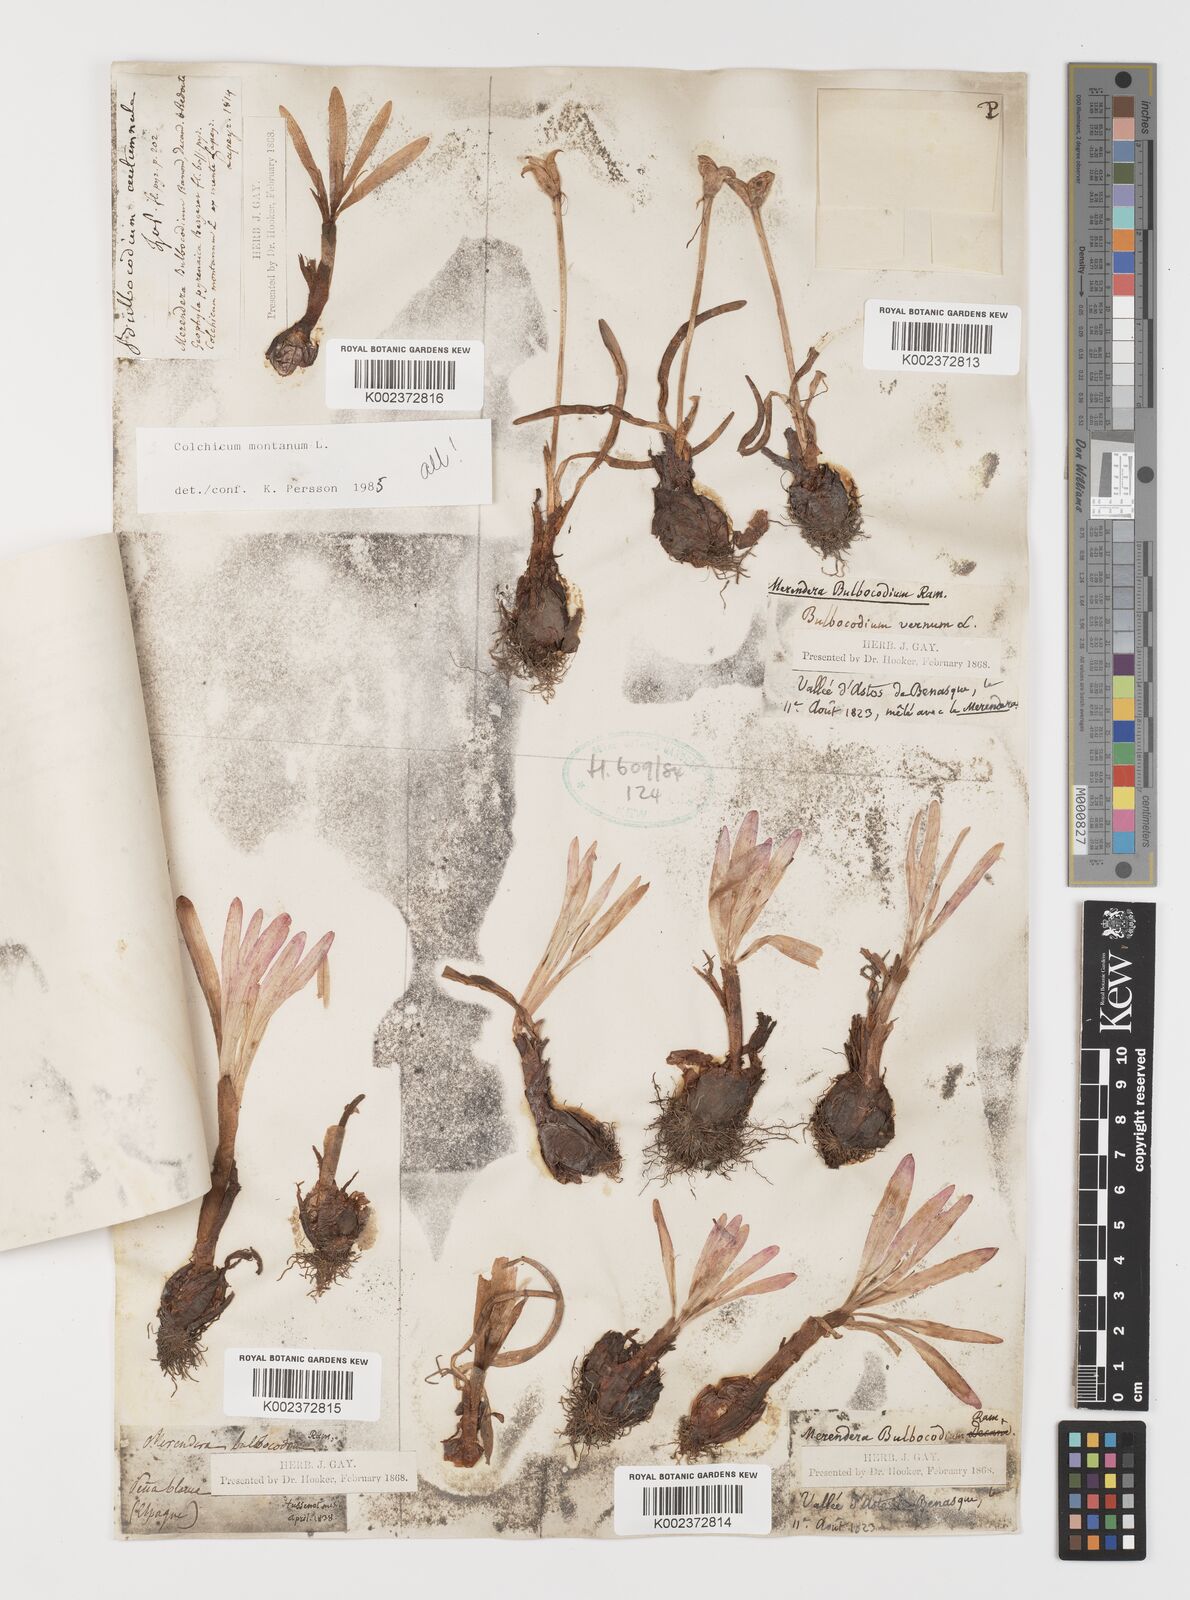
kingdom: Plantae
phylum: Tracheophyta
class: Liliopsida
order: Liliales
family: Colchicaceae
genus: Colchicum
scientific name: Colchicum montanum
